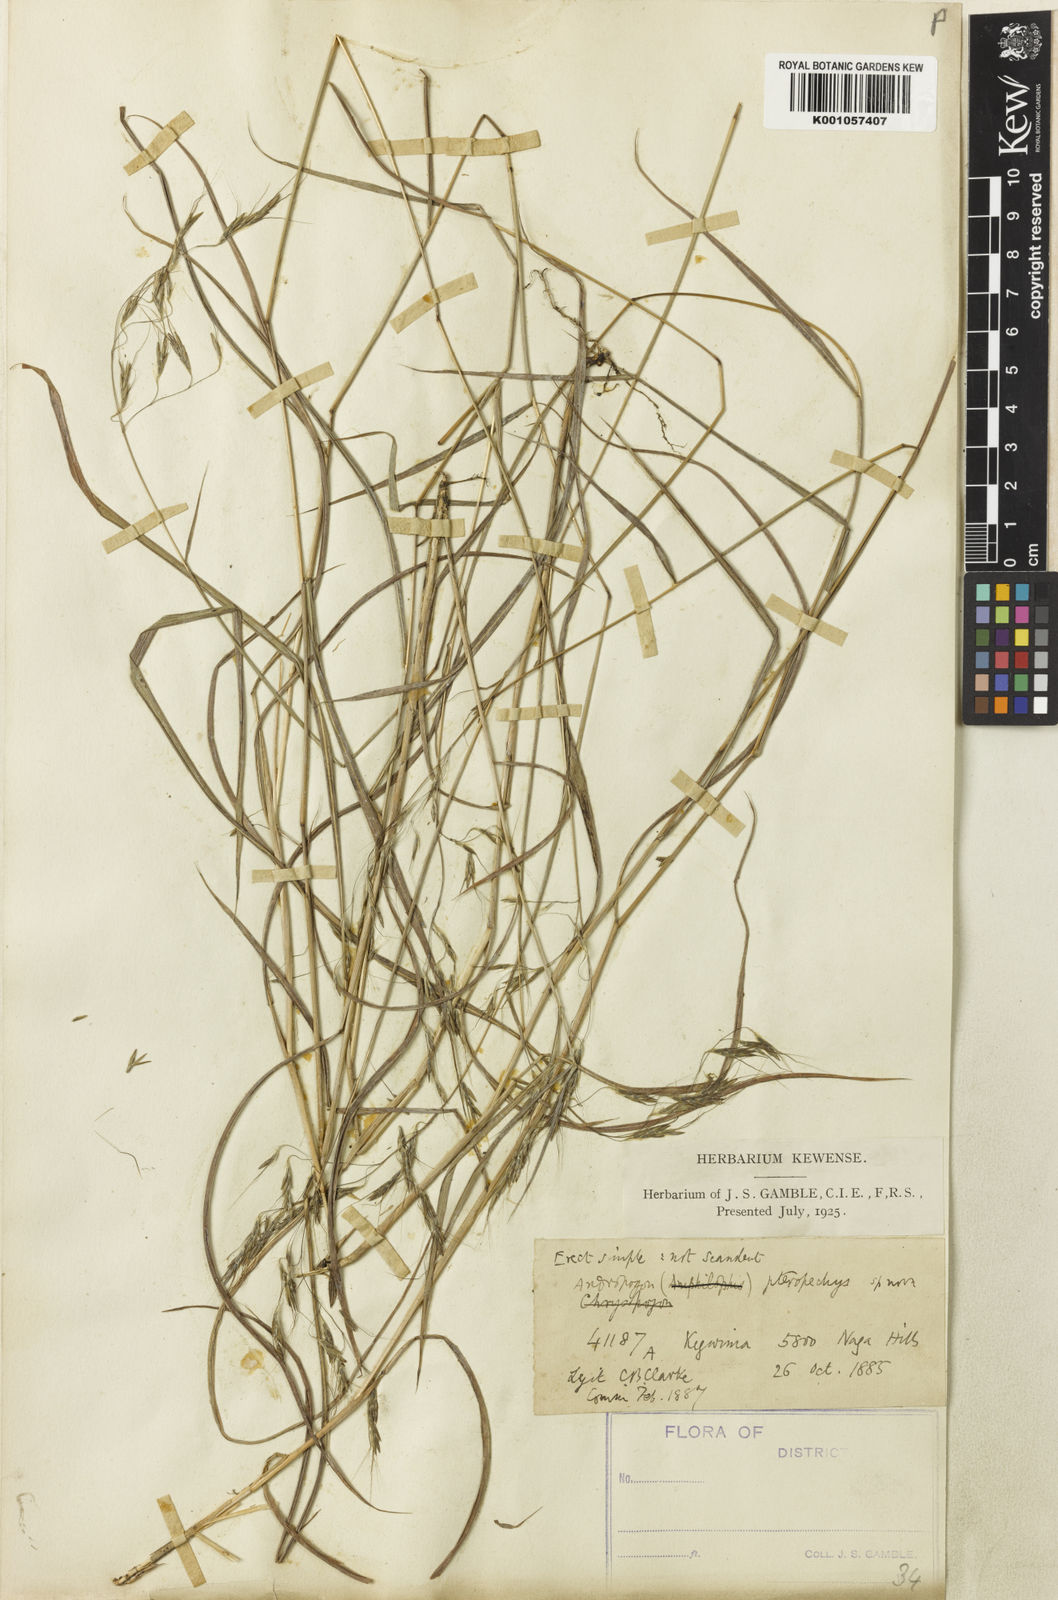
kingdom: Plantae
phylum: Tracheophyta
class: Liliopsida
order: Poales
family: Poaceae
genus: Capillipedium
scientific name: Capillipedium pteropechys
